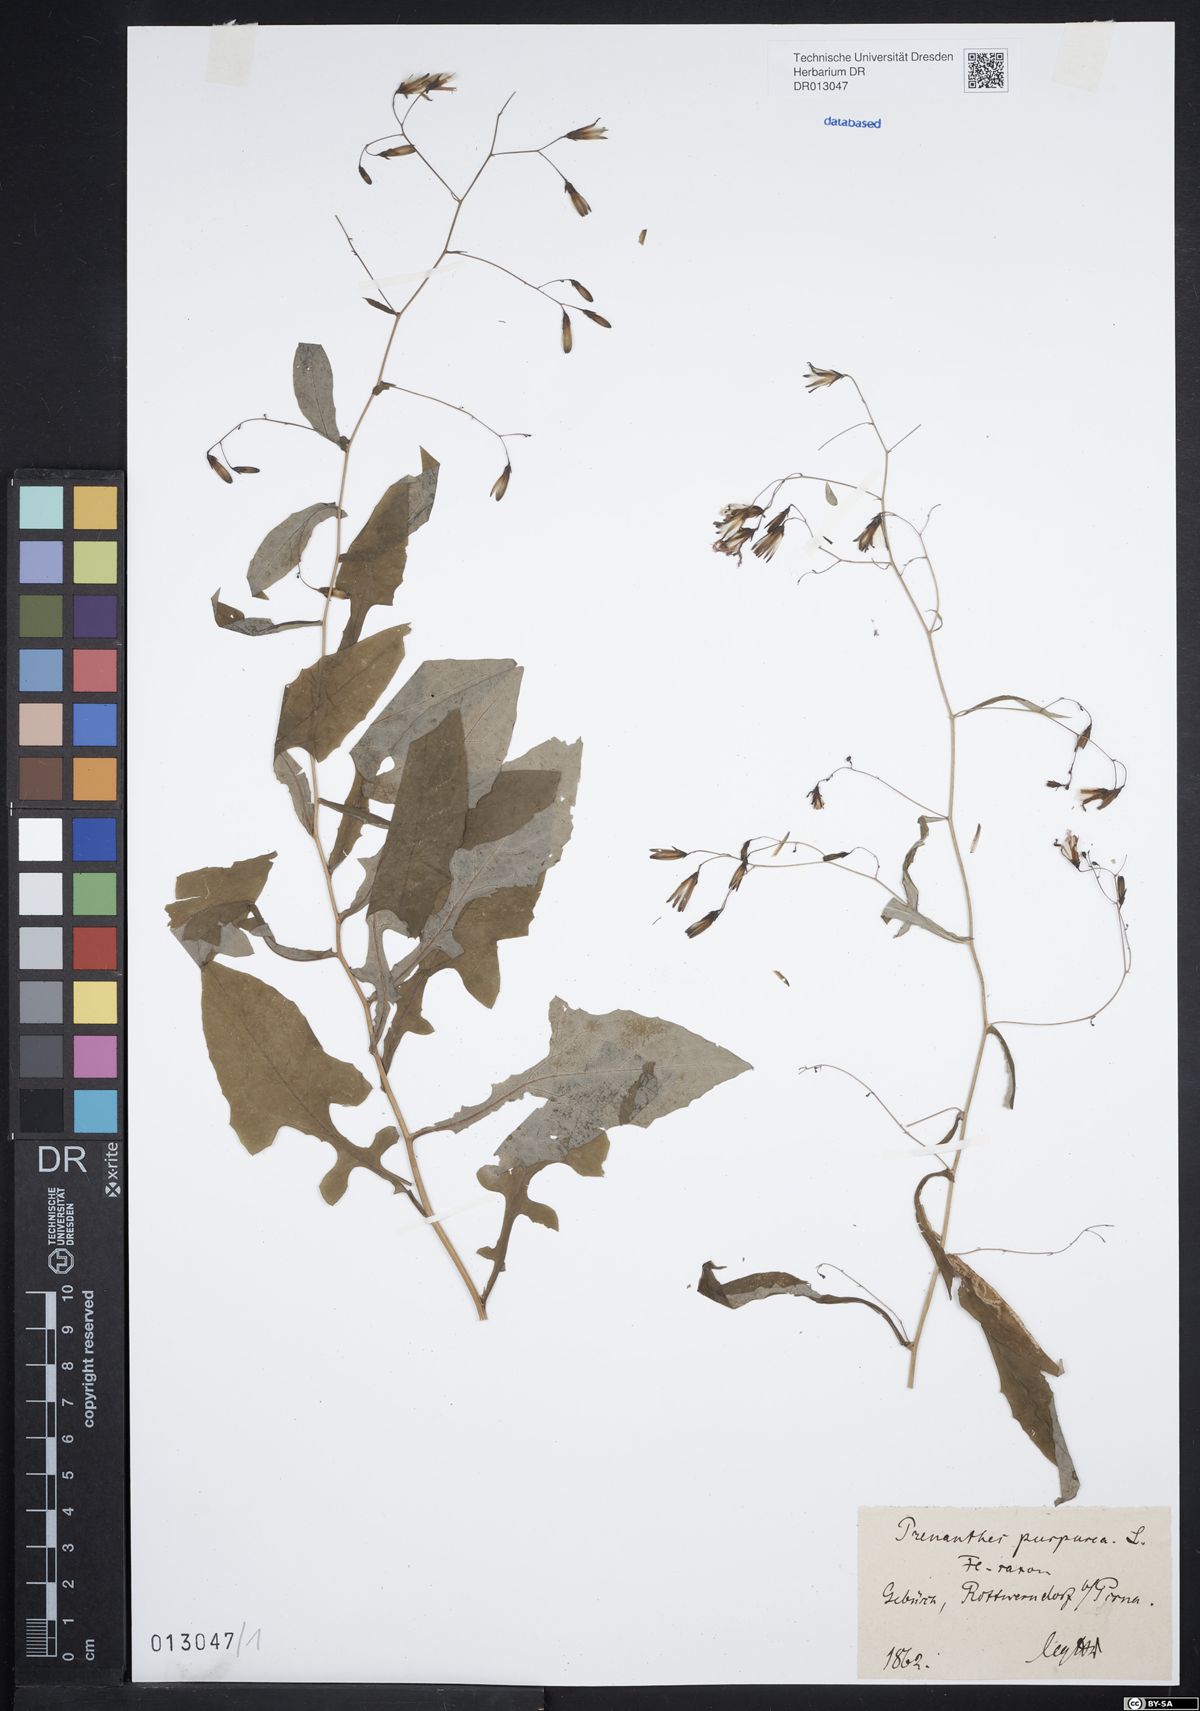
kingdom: Plantae
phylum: Tracheophyta
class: Magnoliopsida
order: Asterales
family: Asteraceae
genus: Prenanthes
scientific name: Prenanthes purpurea
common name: Purple lettuce
